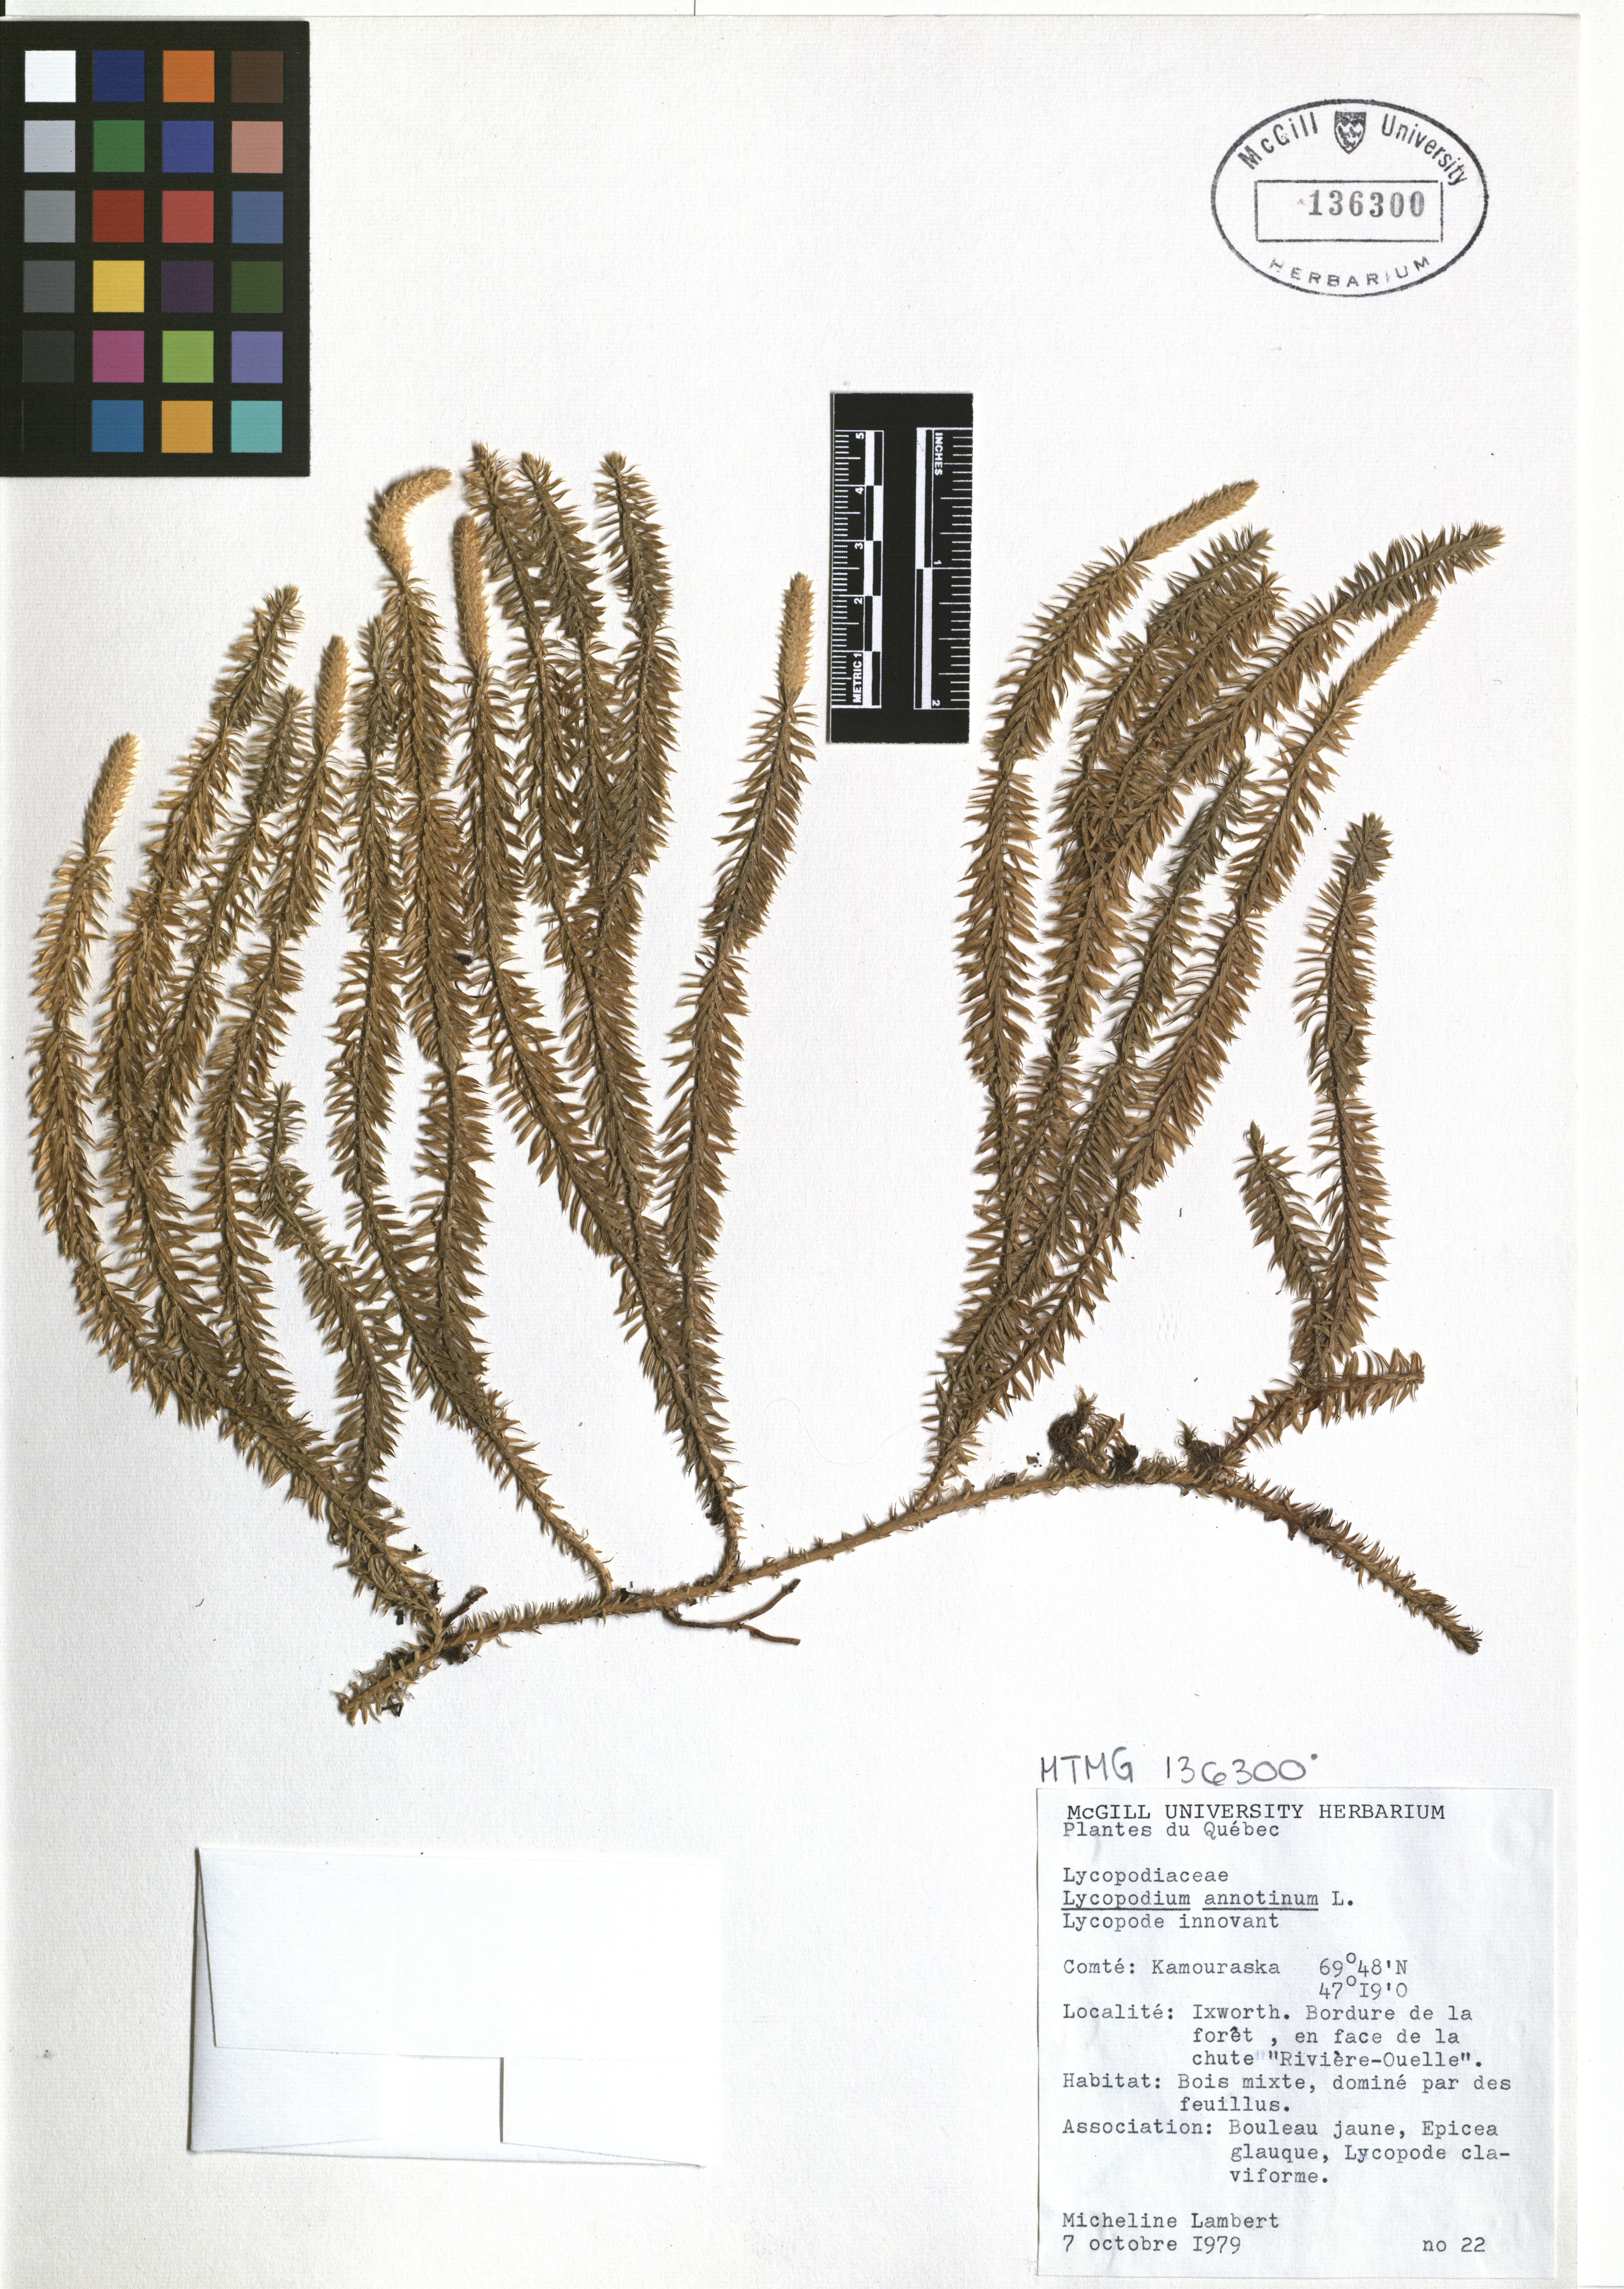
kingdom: Plantae
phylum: Tracheophyta
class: Lycopodiopsida
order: Lycopodiales
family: Lycopodiaceae
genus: Spinulum
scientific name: Spinulum annotinum
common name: Interrupted club-moss
